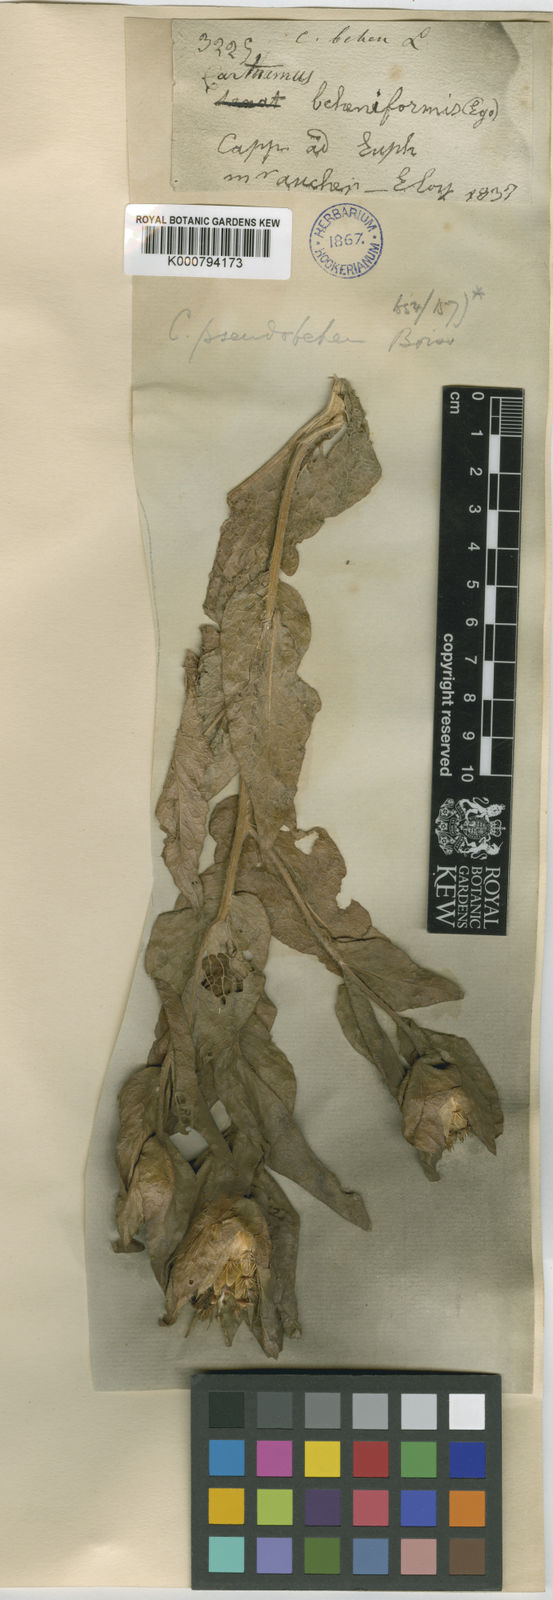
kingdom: Plantae
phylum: Tracheophyta
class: Magnoliopsida
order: Asterales
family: Asteraceae
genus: Centaurea
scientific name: Centaurea polypodiifolia
